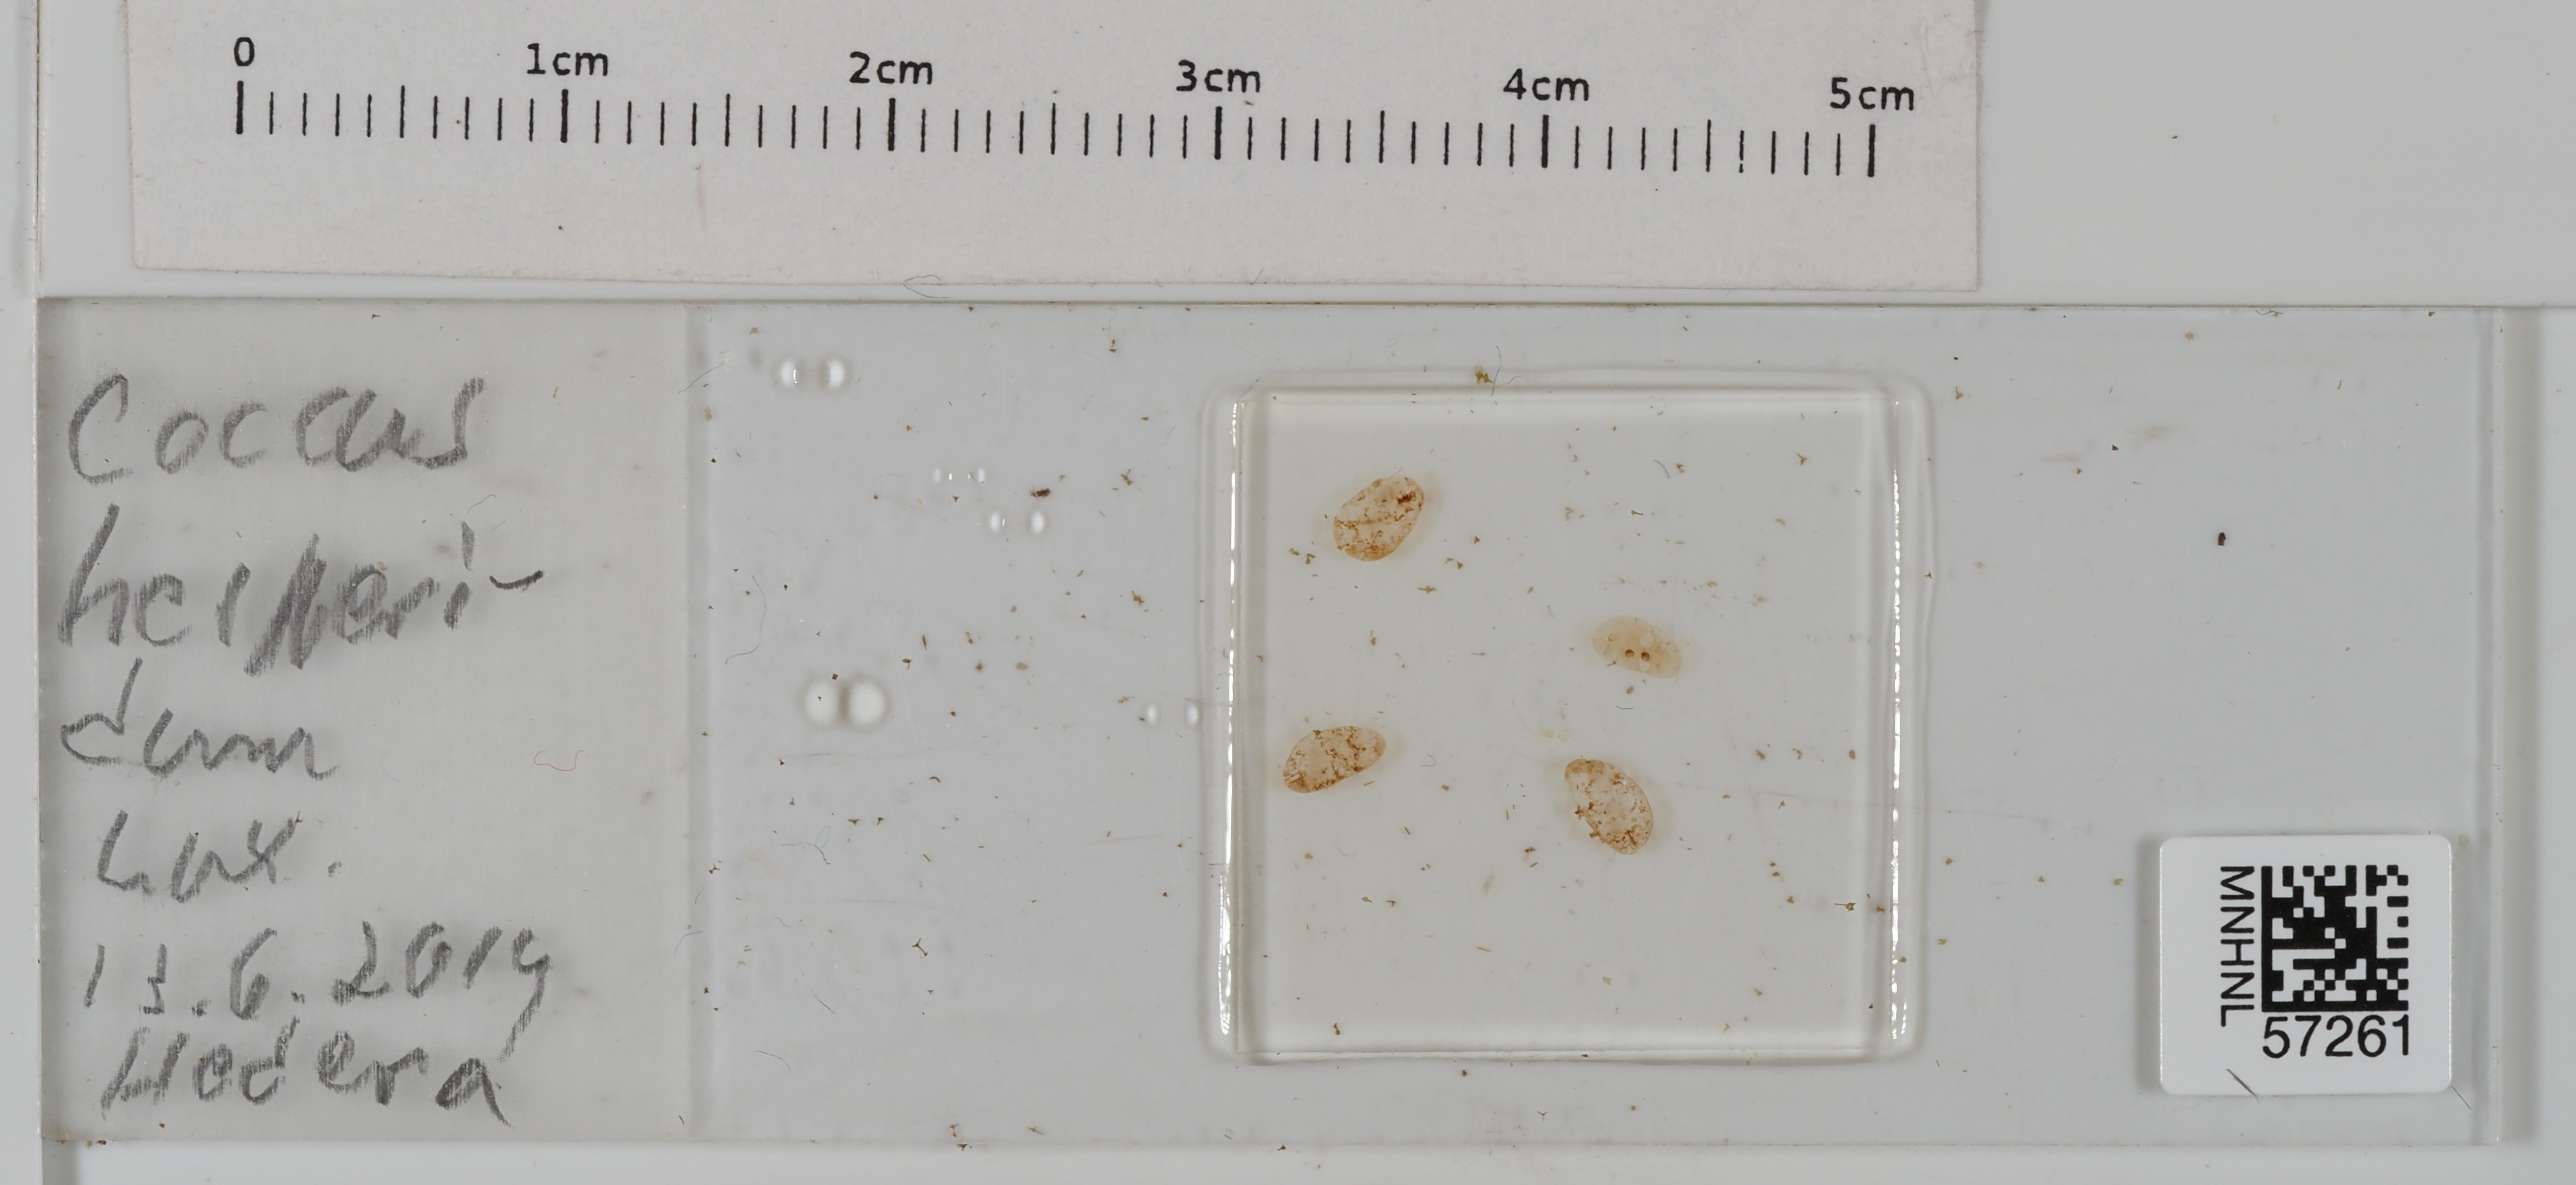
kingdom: Animalia
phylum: Arthropoda
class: Insecta
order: Hemiptera
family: Coccidae
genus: Coccus
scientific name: Coccus hesperidum
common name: Soft brown scale
